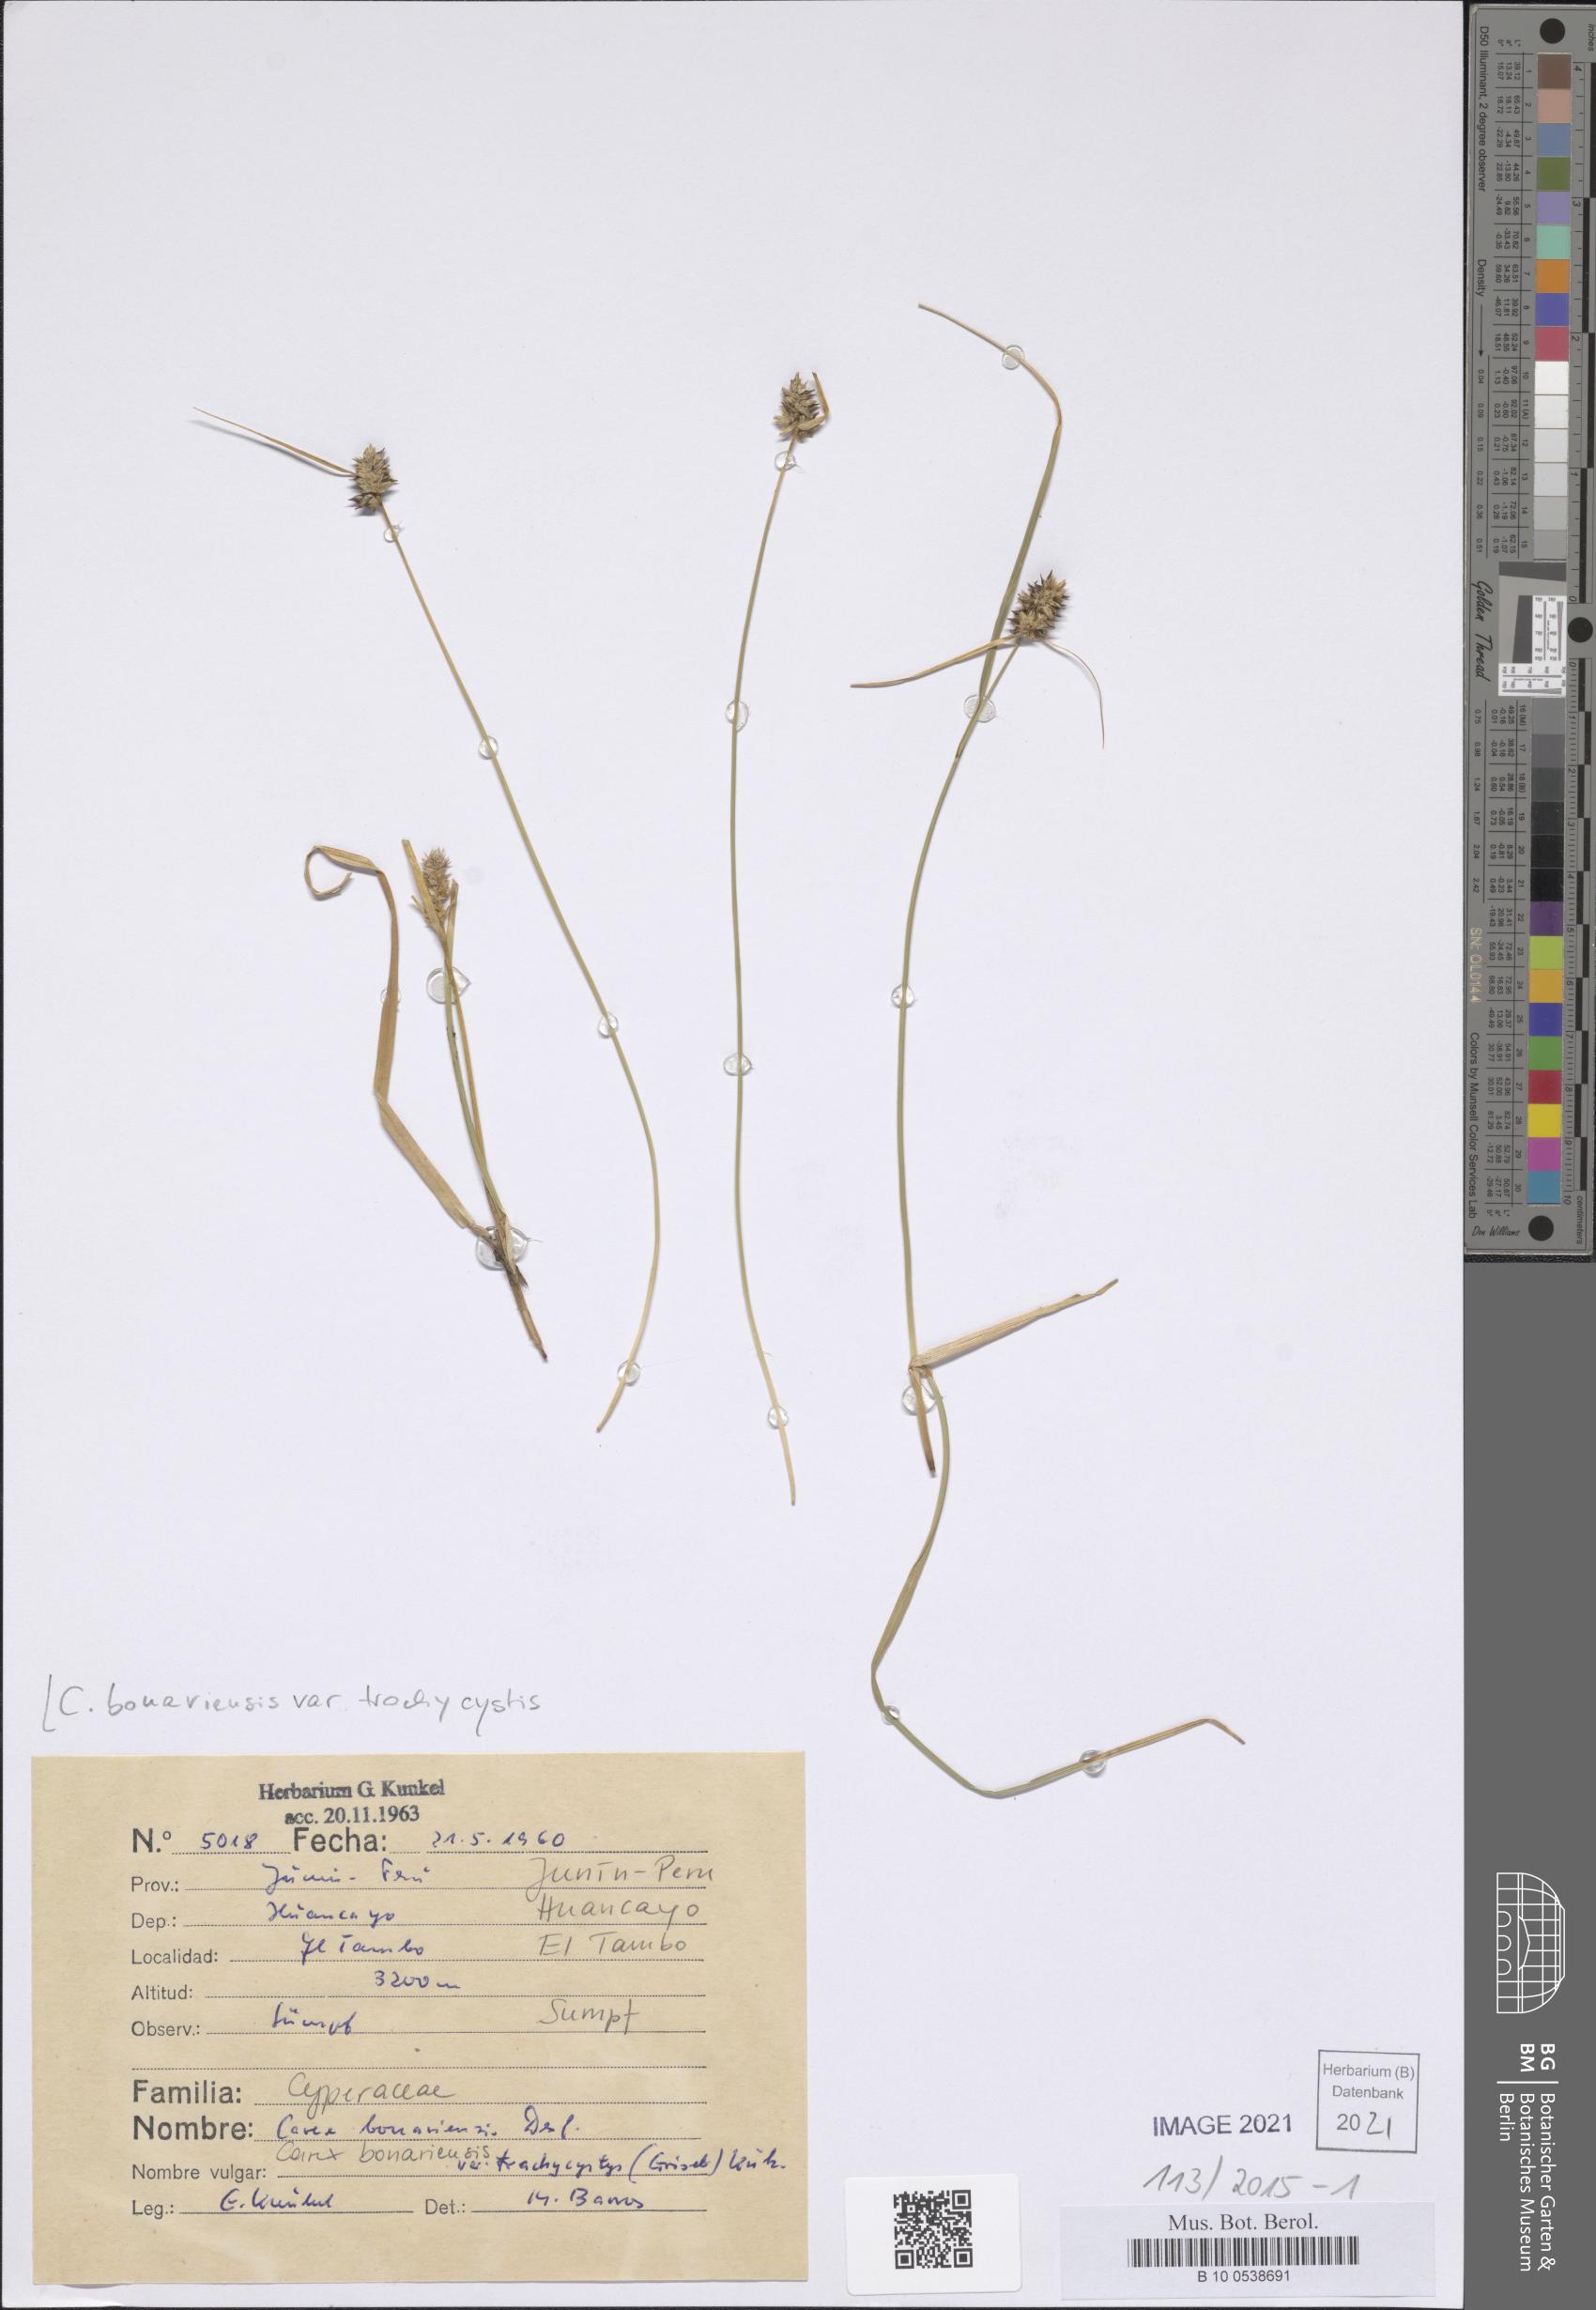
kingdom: Plantae
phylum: Tracheophyta
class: Liliopsida
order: Poales
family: Cyperaceae
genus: Carex
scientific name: Carex bonariensis
